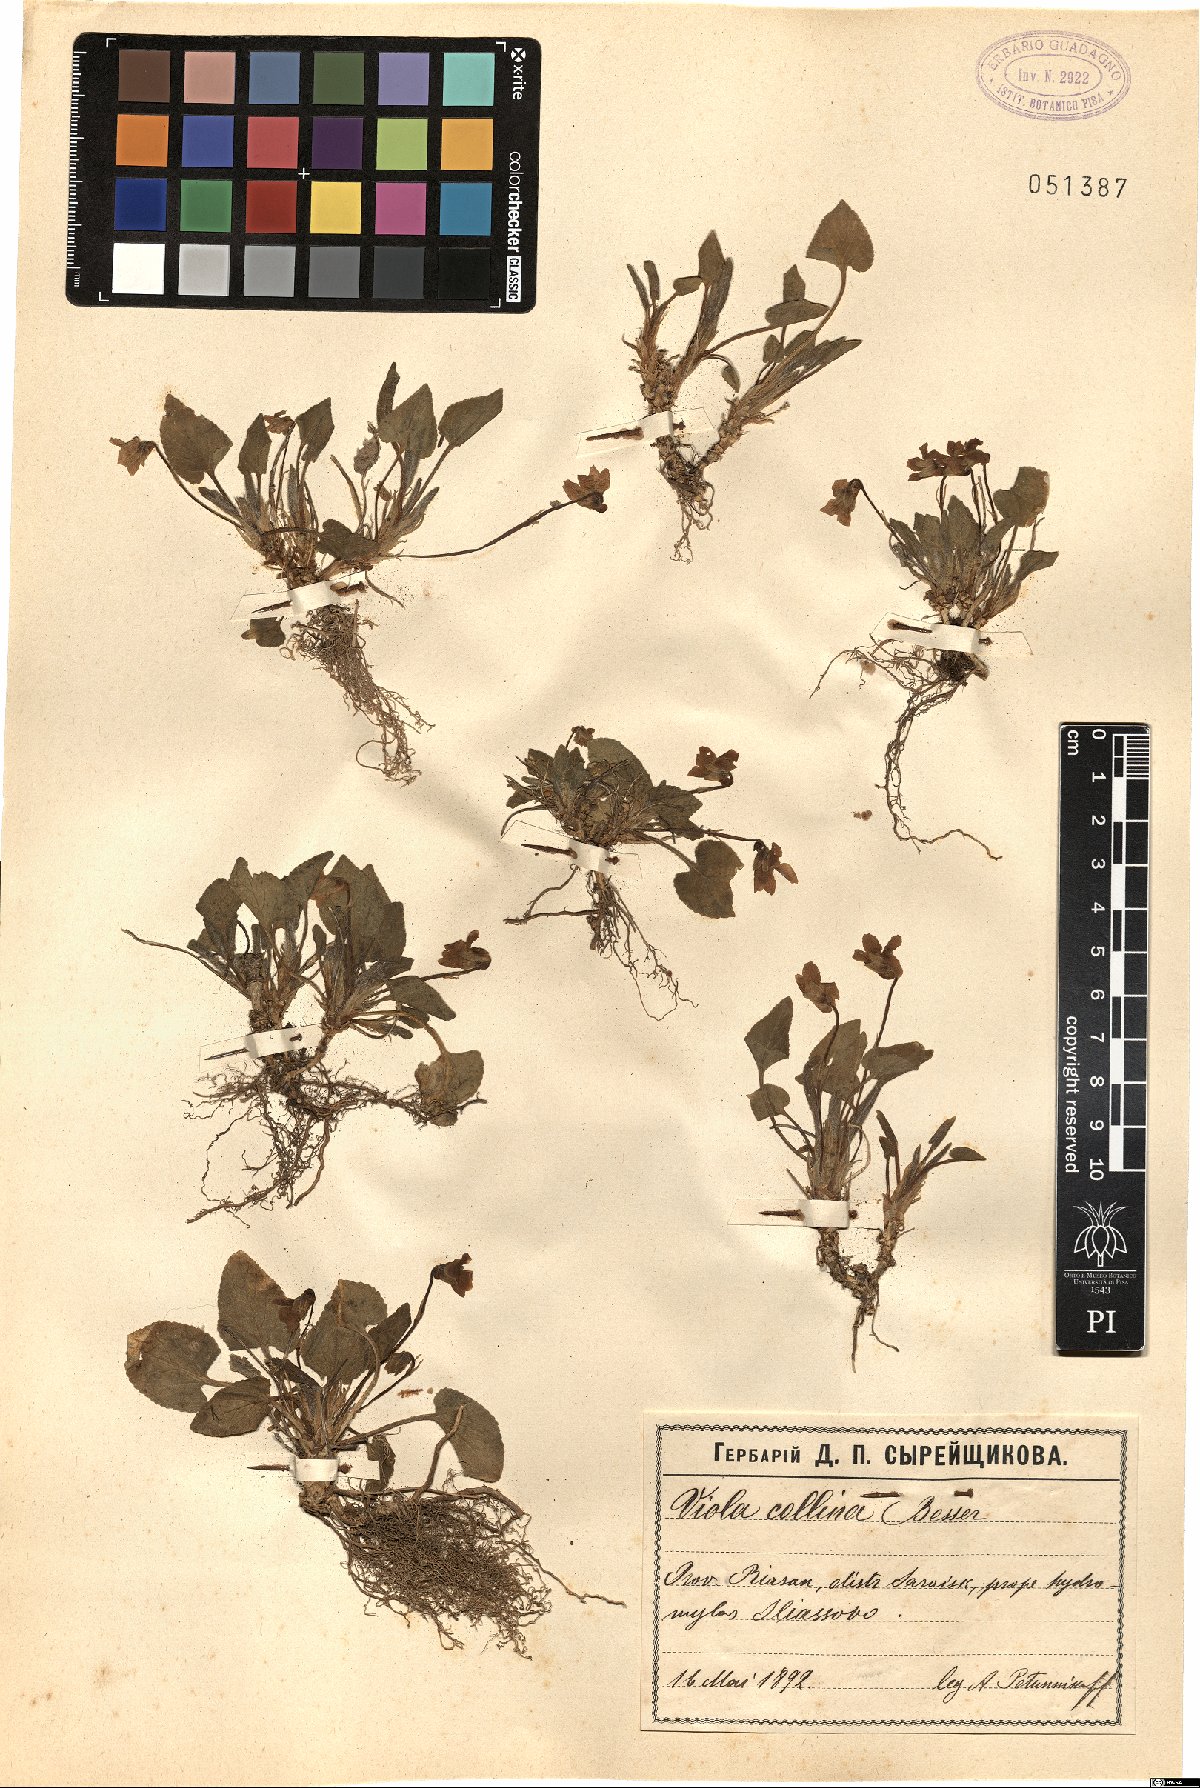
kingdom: Plantae
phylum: Tracheophyta
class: Magnoliopsida
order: Malpighiales
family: Violaceae
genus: Viola
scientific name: Viola collina
